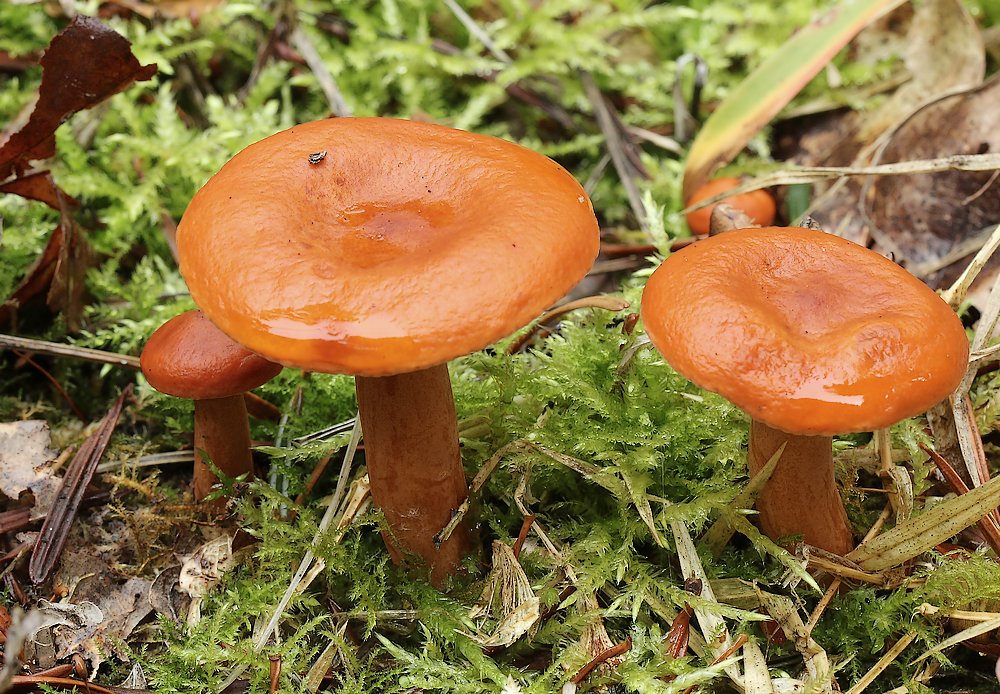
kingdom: Fungi
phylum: Basidiomycota
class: Agaricomycetes
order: Russulales
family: Russulaceae
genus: Lactarius
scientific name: Lactarius aurantiacus
